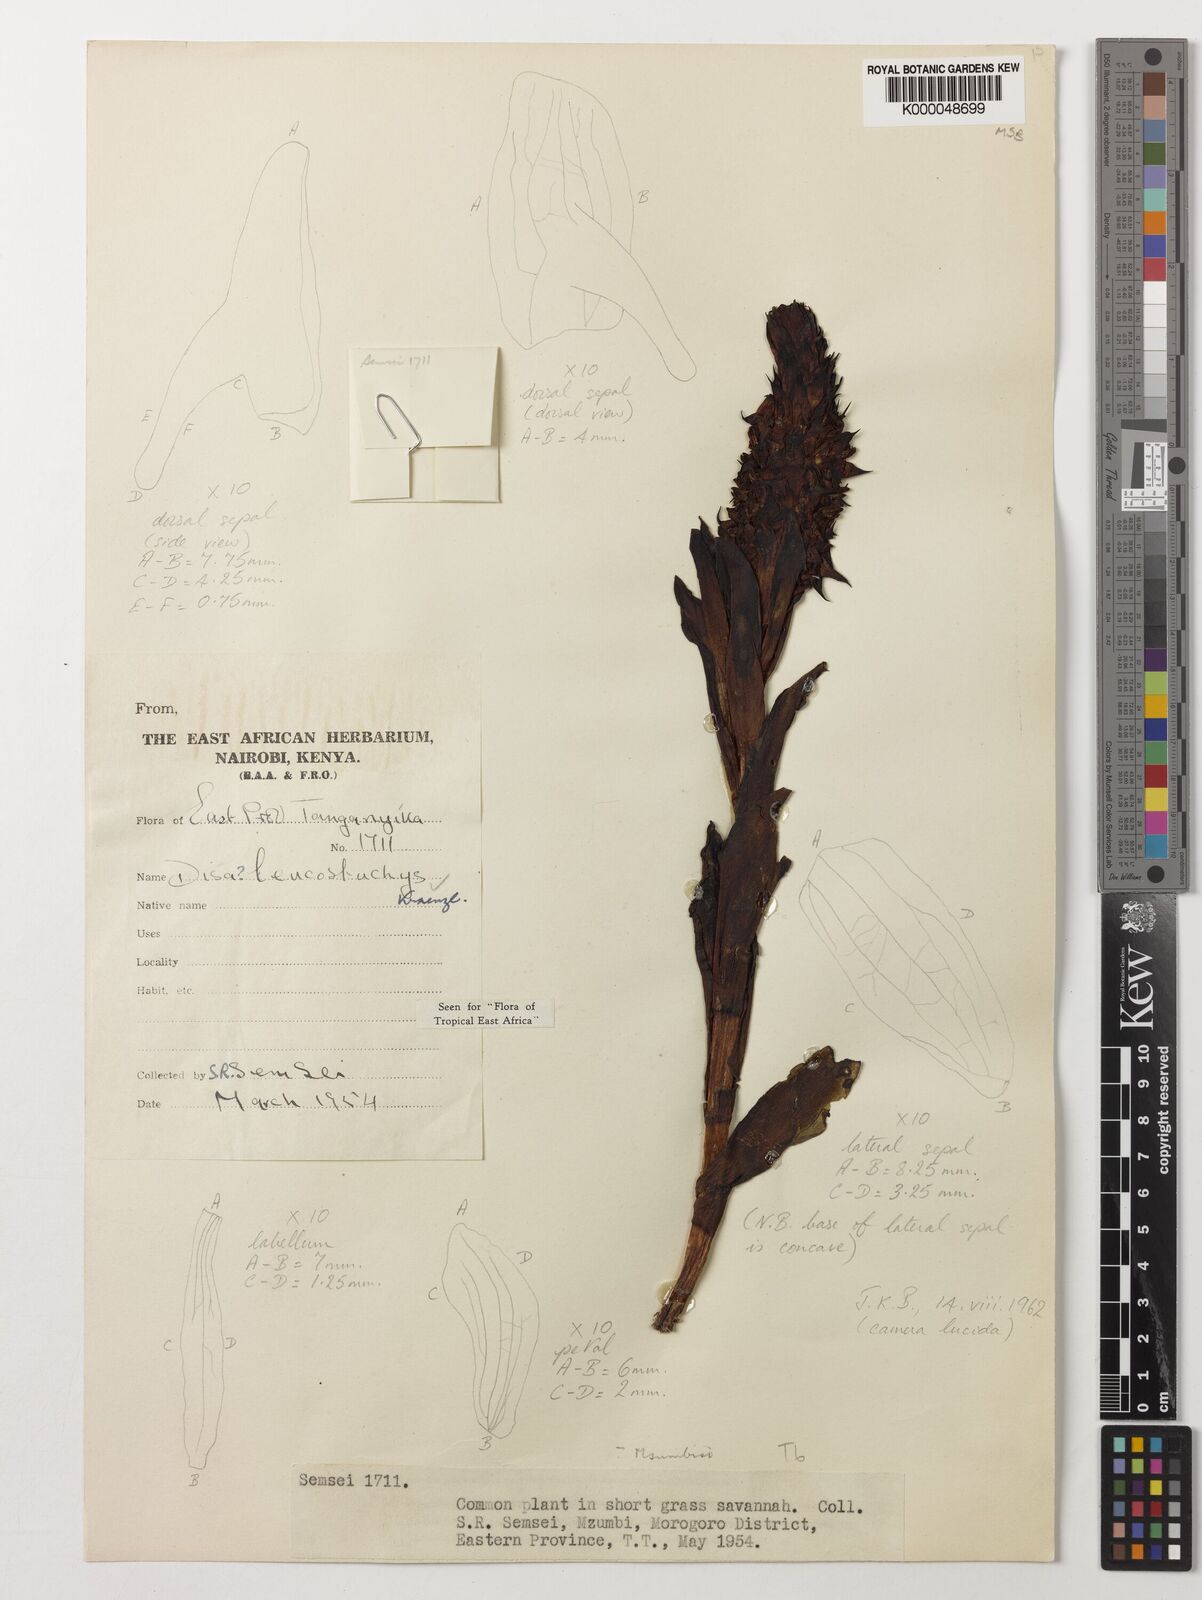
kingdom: Plantae
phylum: Tracheophyta
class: Liliopsida
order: Asparagales
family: Orchidaceae
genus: Disa
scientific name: Disa fragrans
